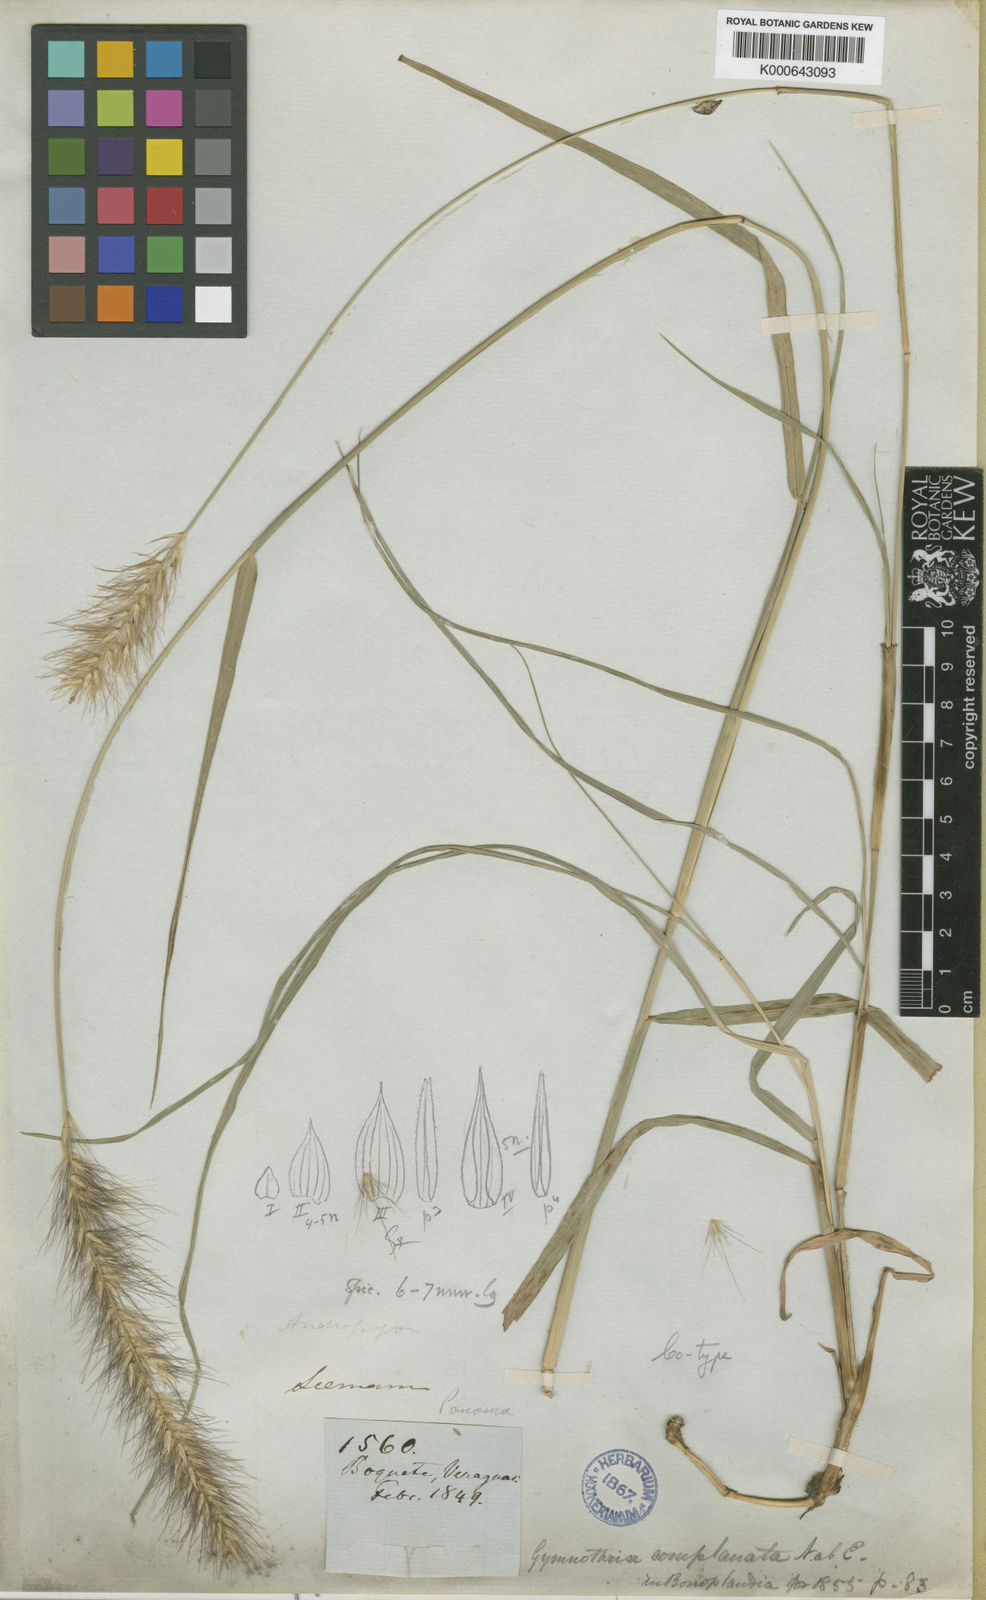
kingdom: Plantae
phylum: Tracheophyta
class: Liliopsida
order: Poales
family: Poaceae
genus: Cenchrus
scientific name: Cenchrus complanatus
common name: Nicaraguan fountaingrass
